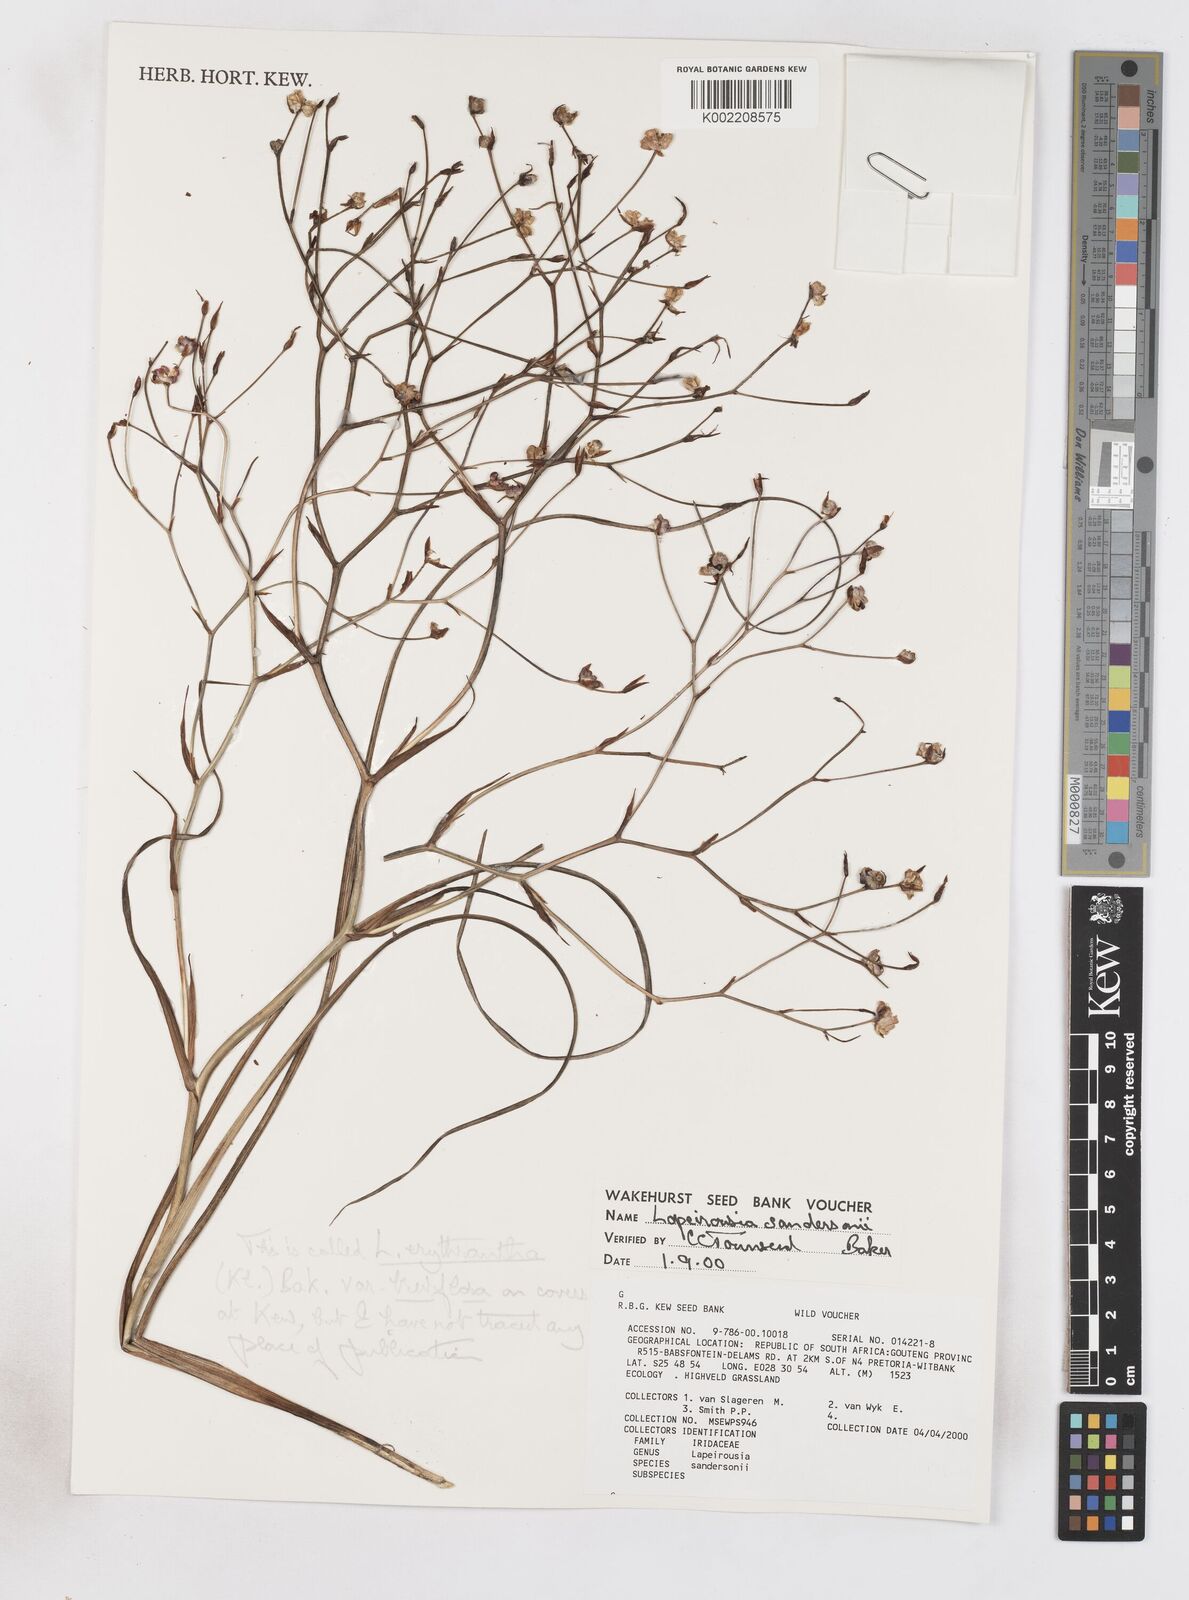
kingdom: Plantae
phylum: Tracheophyta
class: Liliopsida
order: Asparagales
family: Iridaceae
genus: Afrosolen
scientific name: Afrosolen sandersonii
